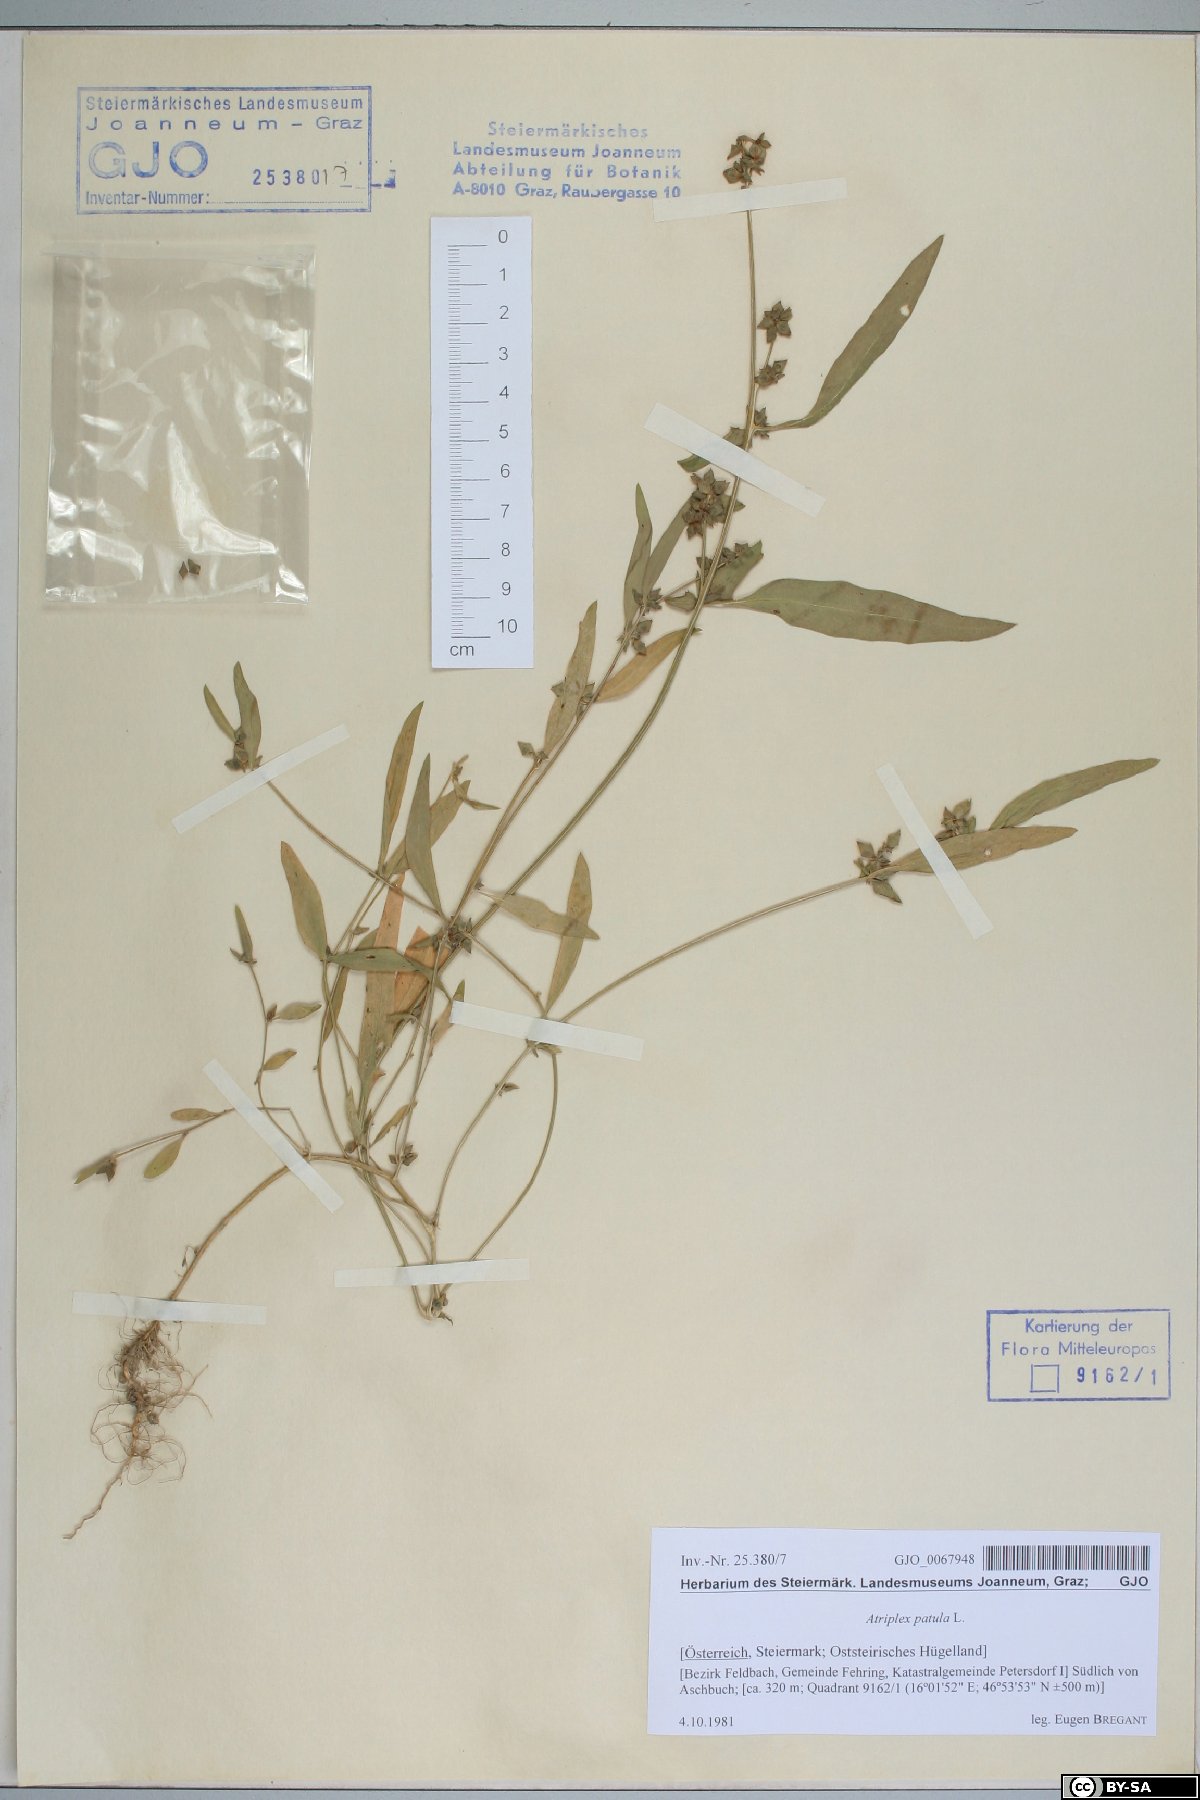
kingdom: Plantae
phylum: Tracheophyta
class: Magnoliopsida
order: Caryophyllales
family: Amaranthaceae
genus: Atriplex
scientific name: Atriplex patula
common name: Common orache
